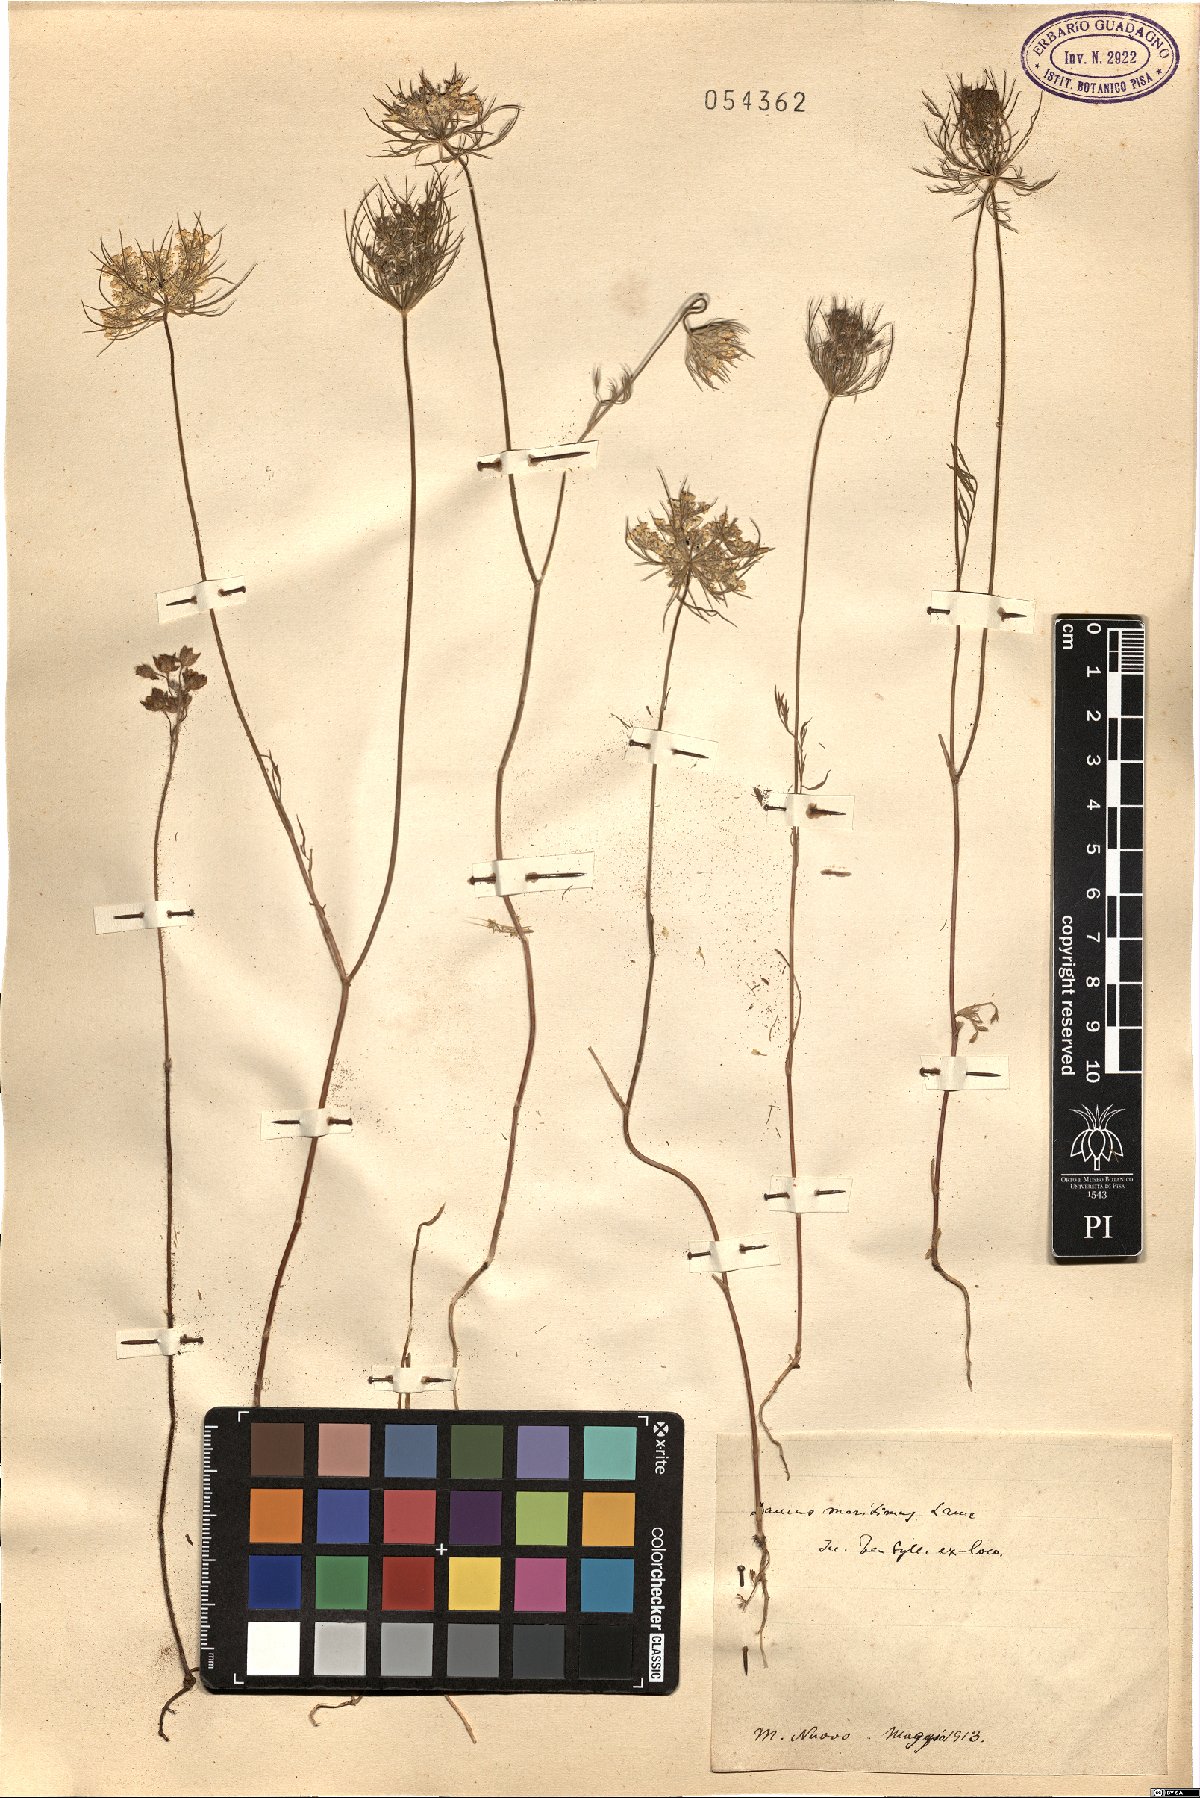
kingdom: Plantae
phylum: Tracheophyta
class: Magnoliopsida
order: Apiales
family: Apiaceae
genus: Daucus
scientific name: Daucus carota
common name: Wild carrot
